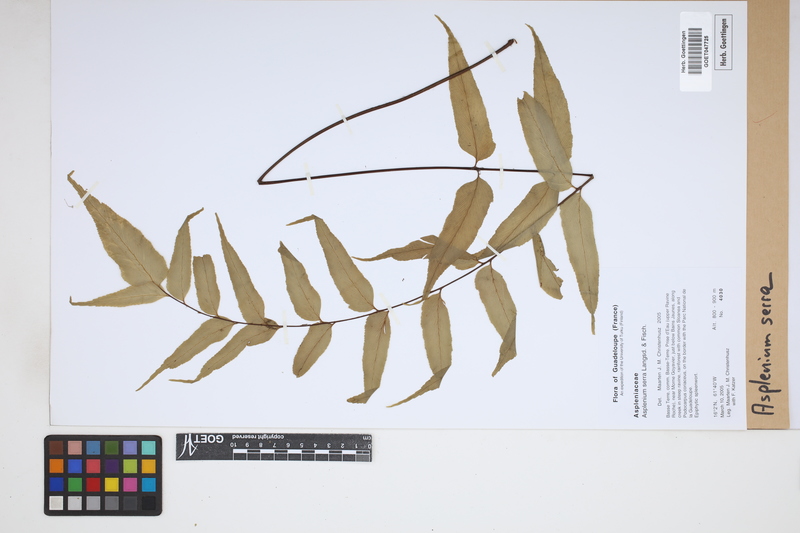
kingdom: Plantae
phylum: Tracheophyta
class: Polypodiopsida
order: Polypodiales
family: Aspleniaceae
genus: Asplenium
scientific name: Asplenium serra
